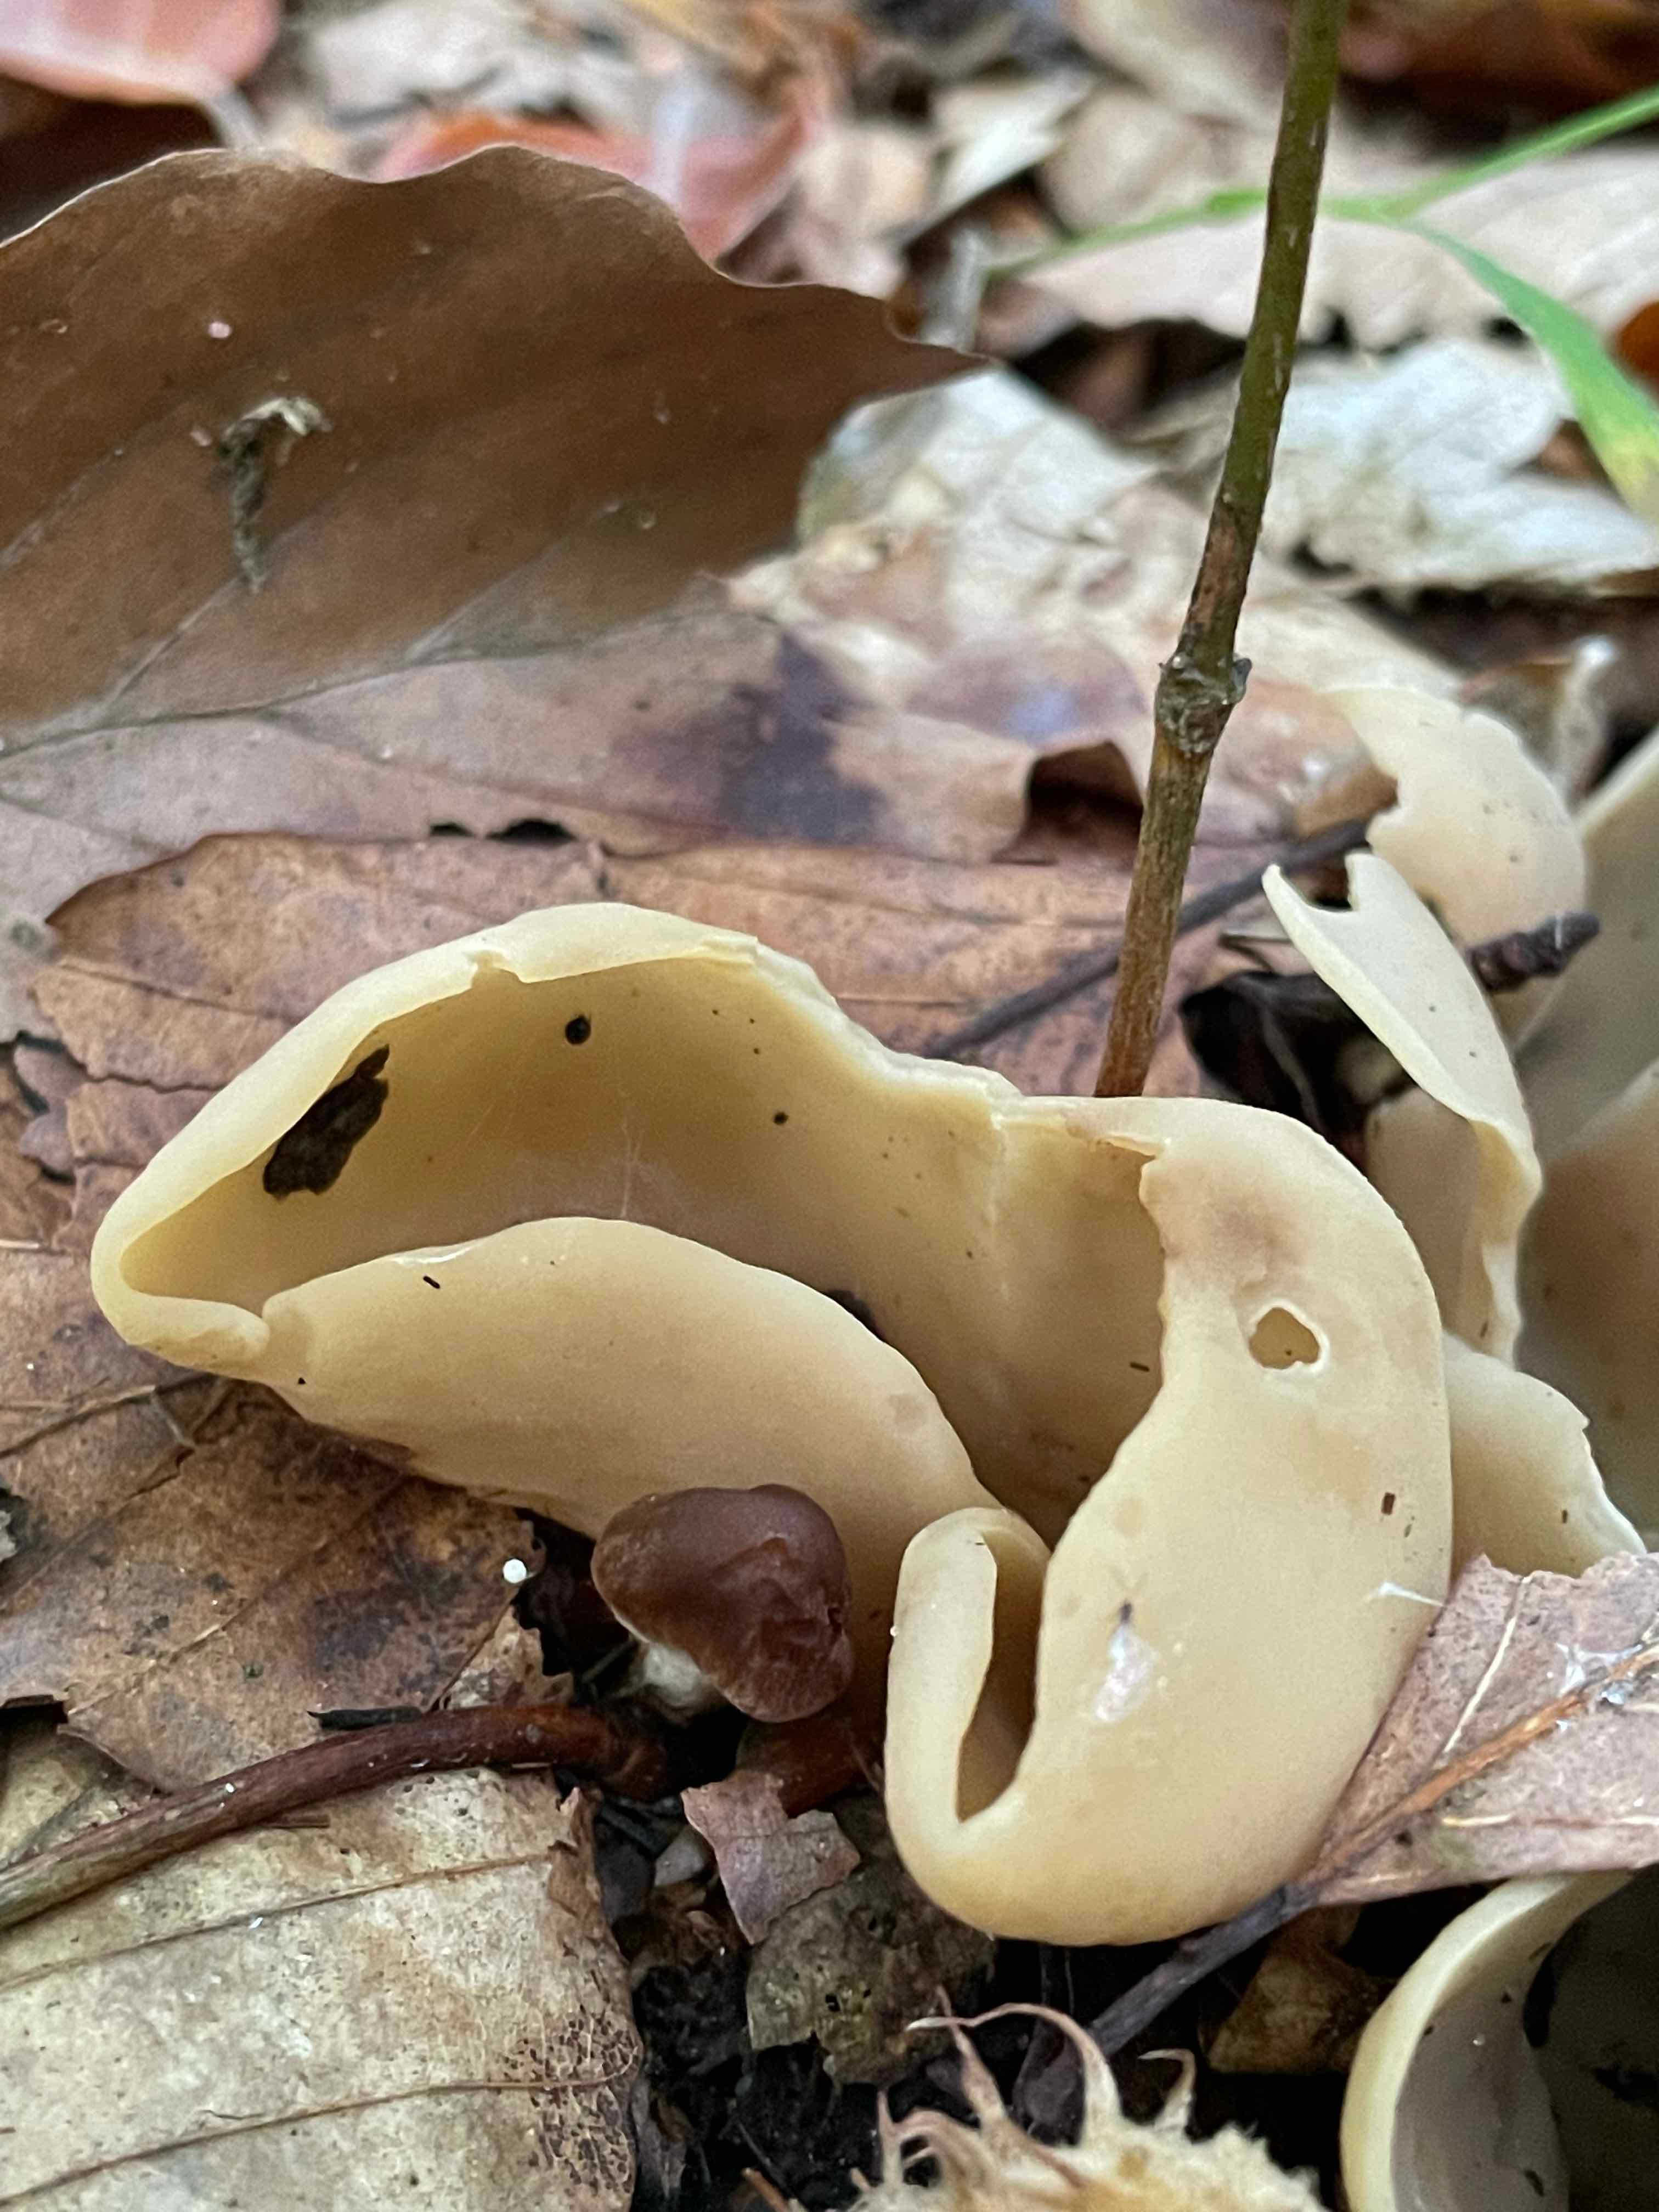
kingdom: Fungi
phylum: Ascomycota
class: Pezizomycetes
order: Pezizales
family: Otideaceae
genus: Otidea
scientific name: Otidea alutacea
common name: læder-ørebæger
